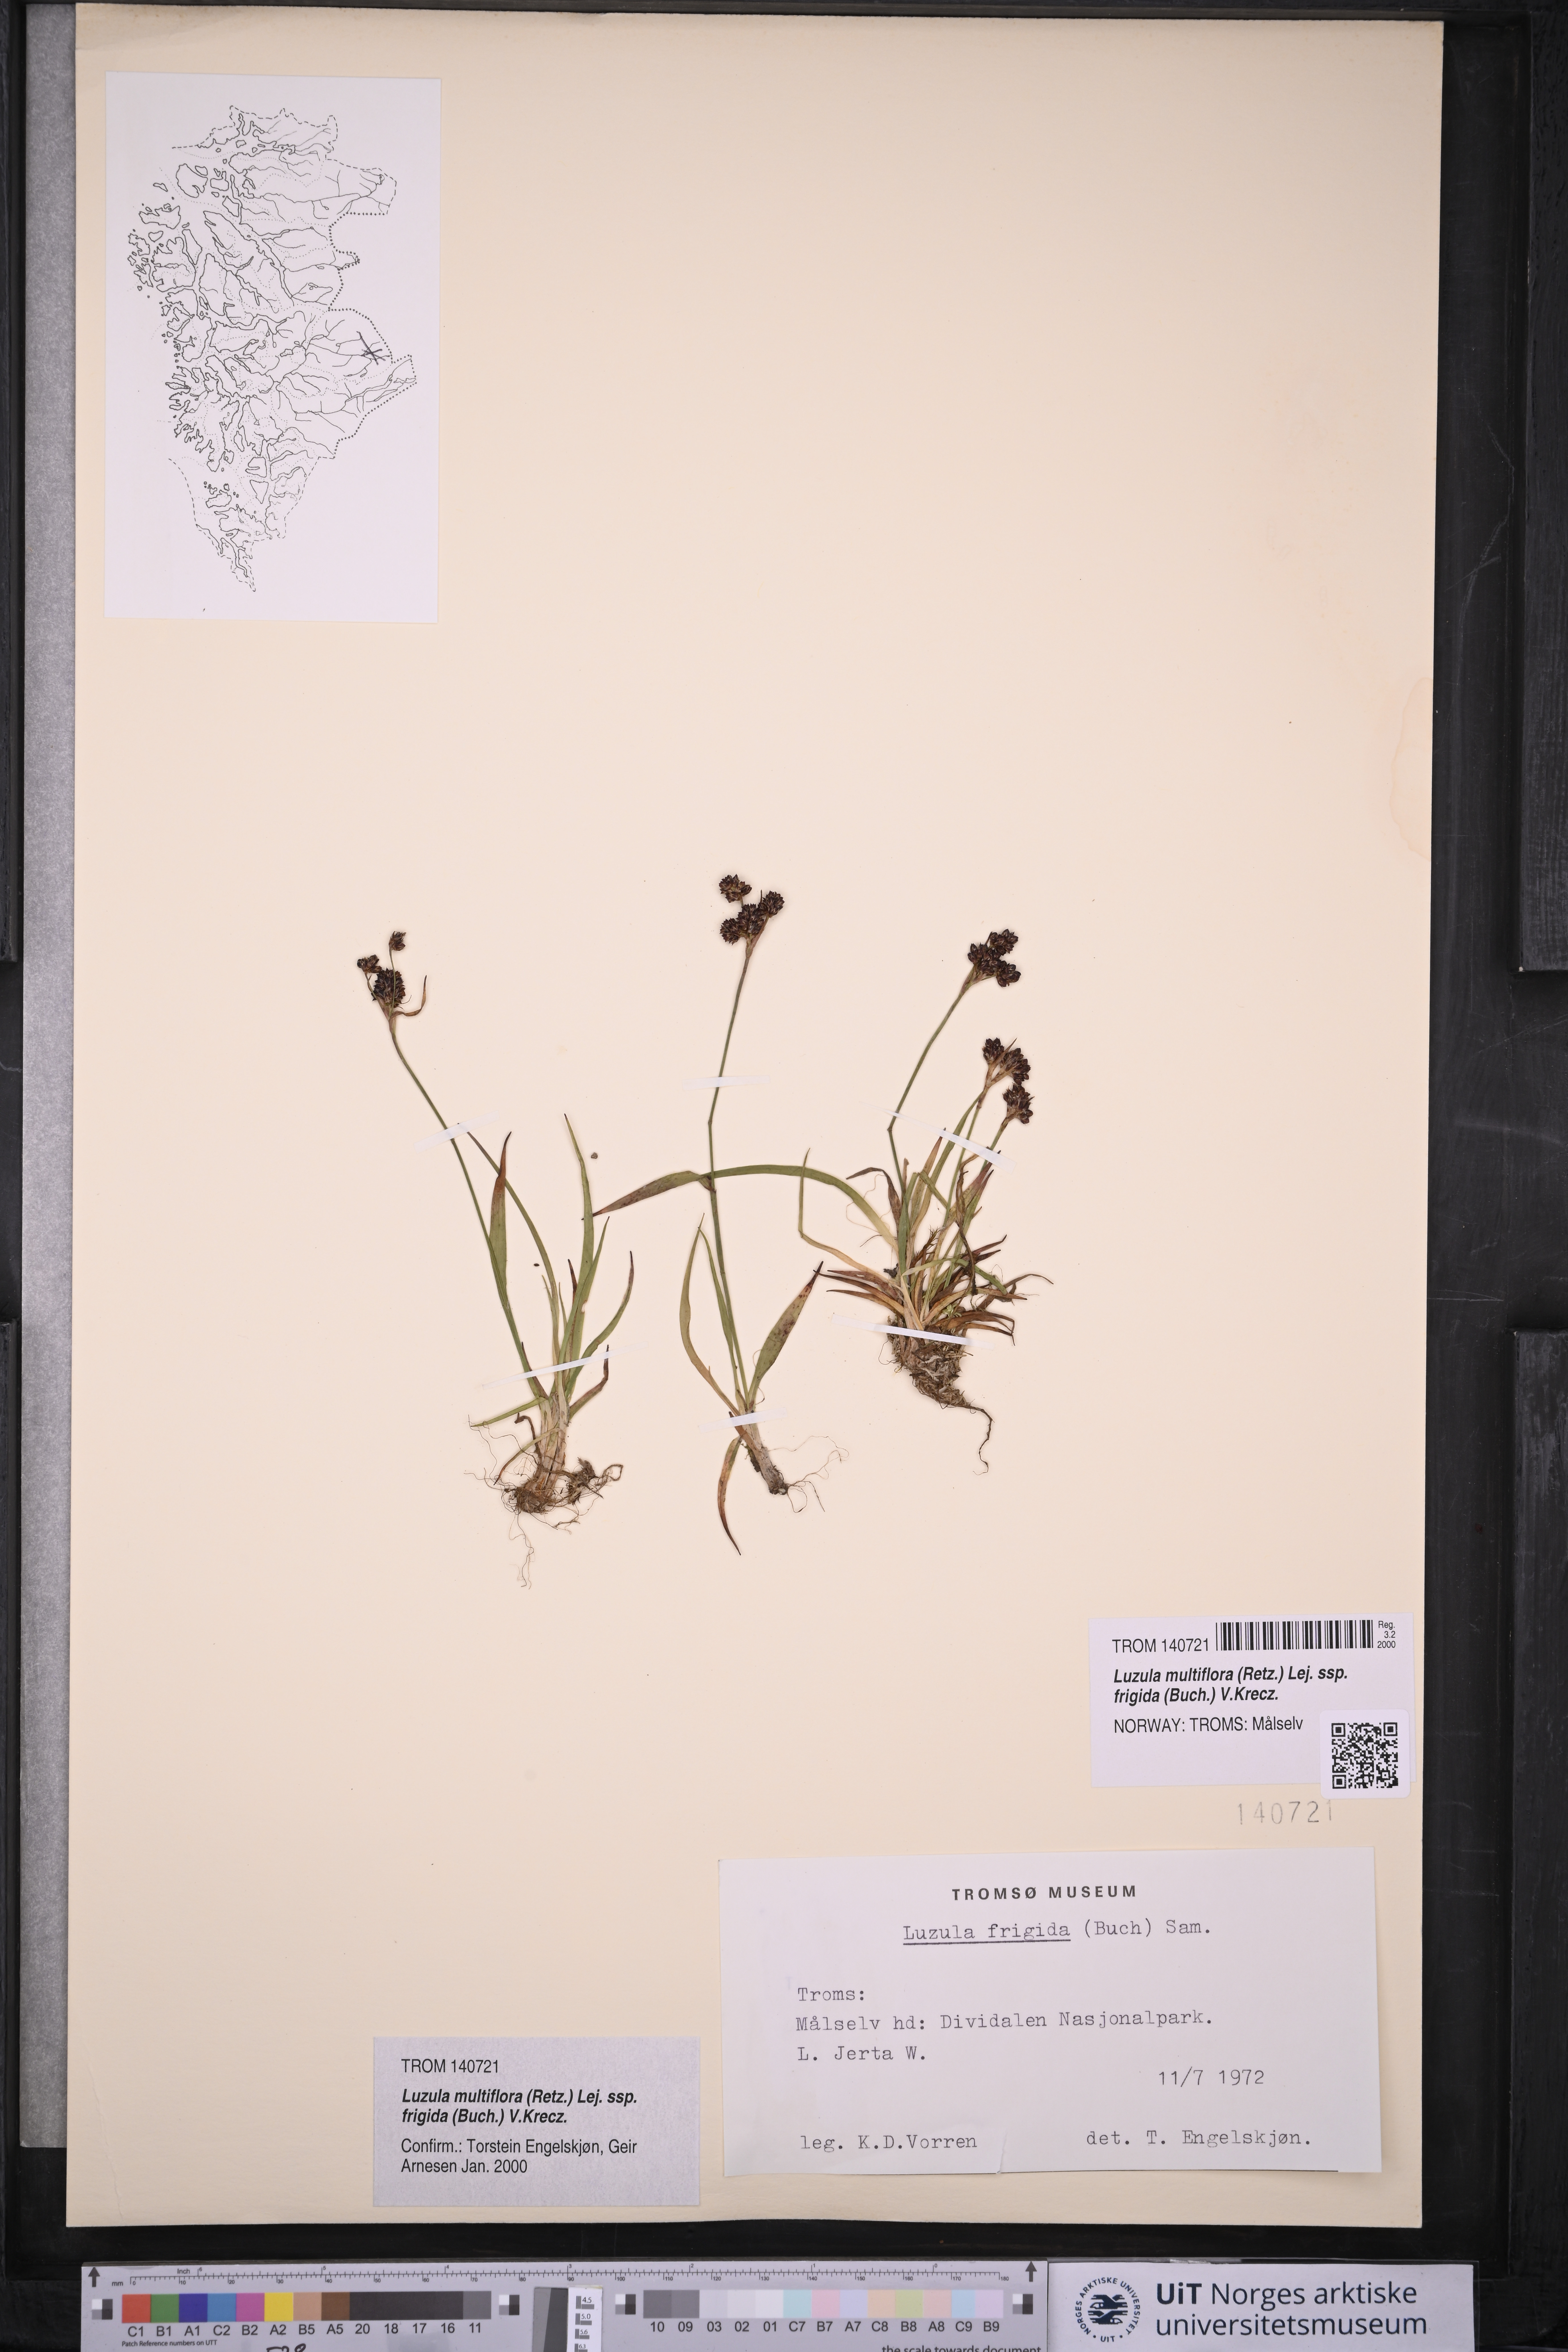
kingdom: Plantae
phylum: Tracheophyta
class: Liliopsida
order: Poales
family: Juncaceae
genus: Luzula
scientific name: Luzula multiflora
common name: Heath wood-rush
